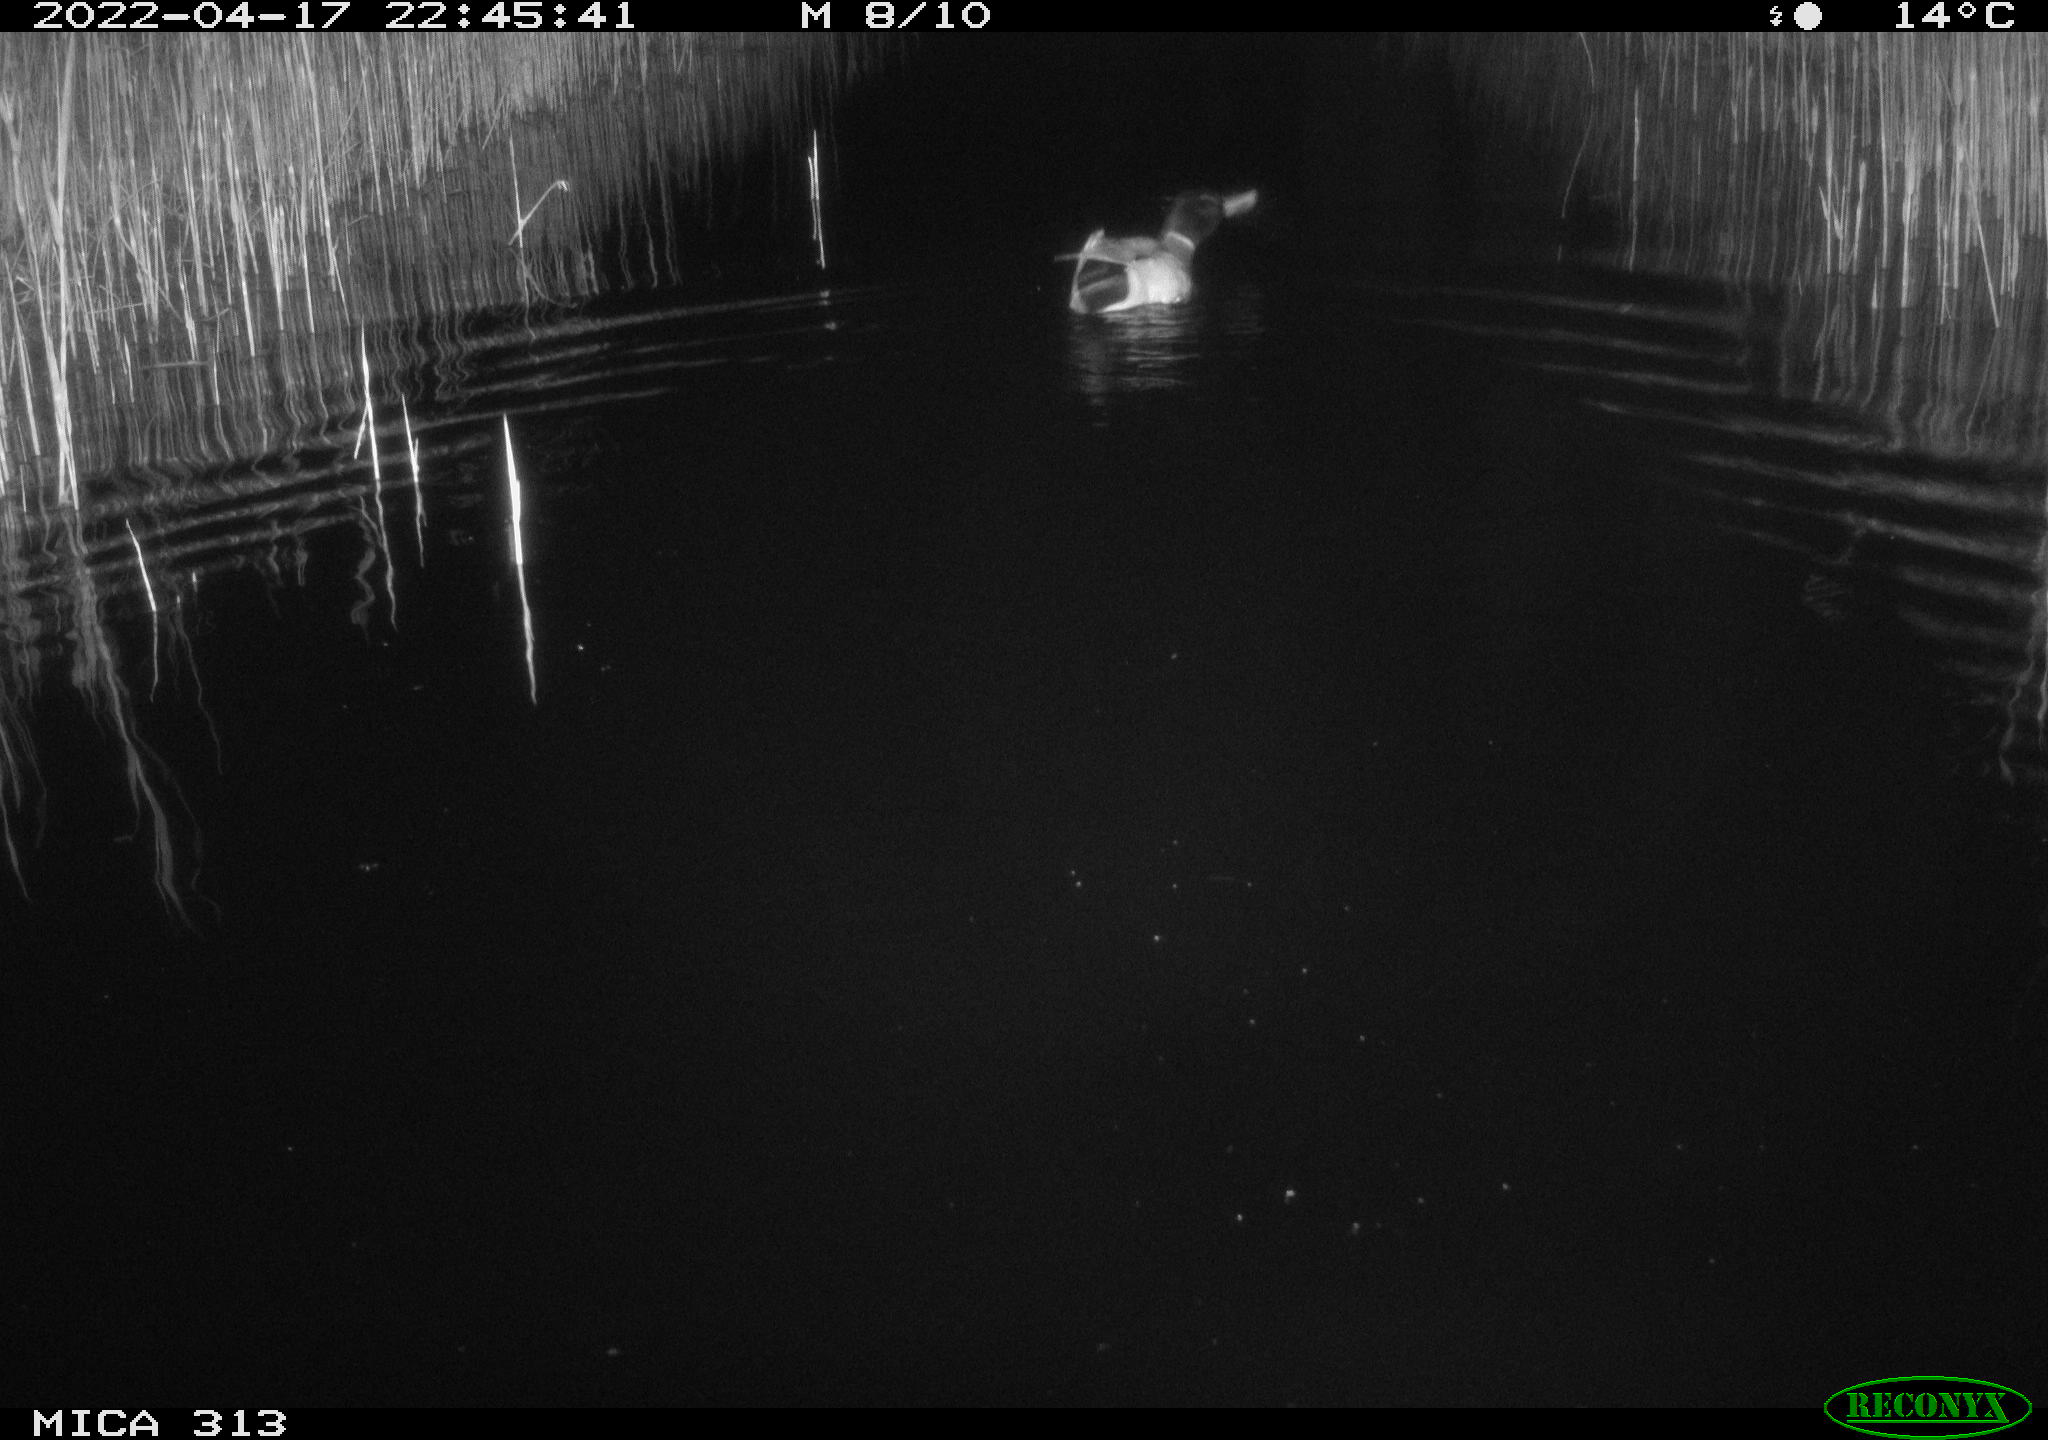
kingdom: Animalia
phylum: Chordata
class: Aves
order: Anseriformes
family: Anatidae
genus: Anas
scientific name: Anas platyrhynchos
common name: Mallard
